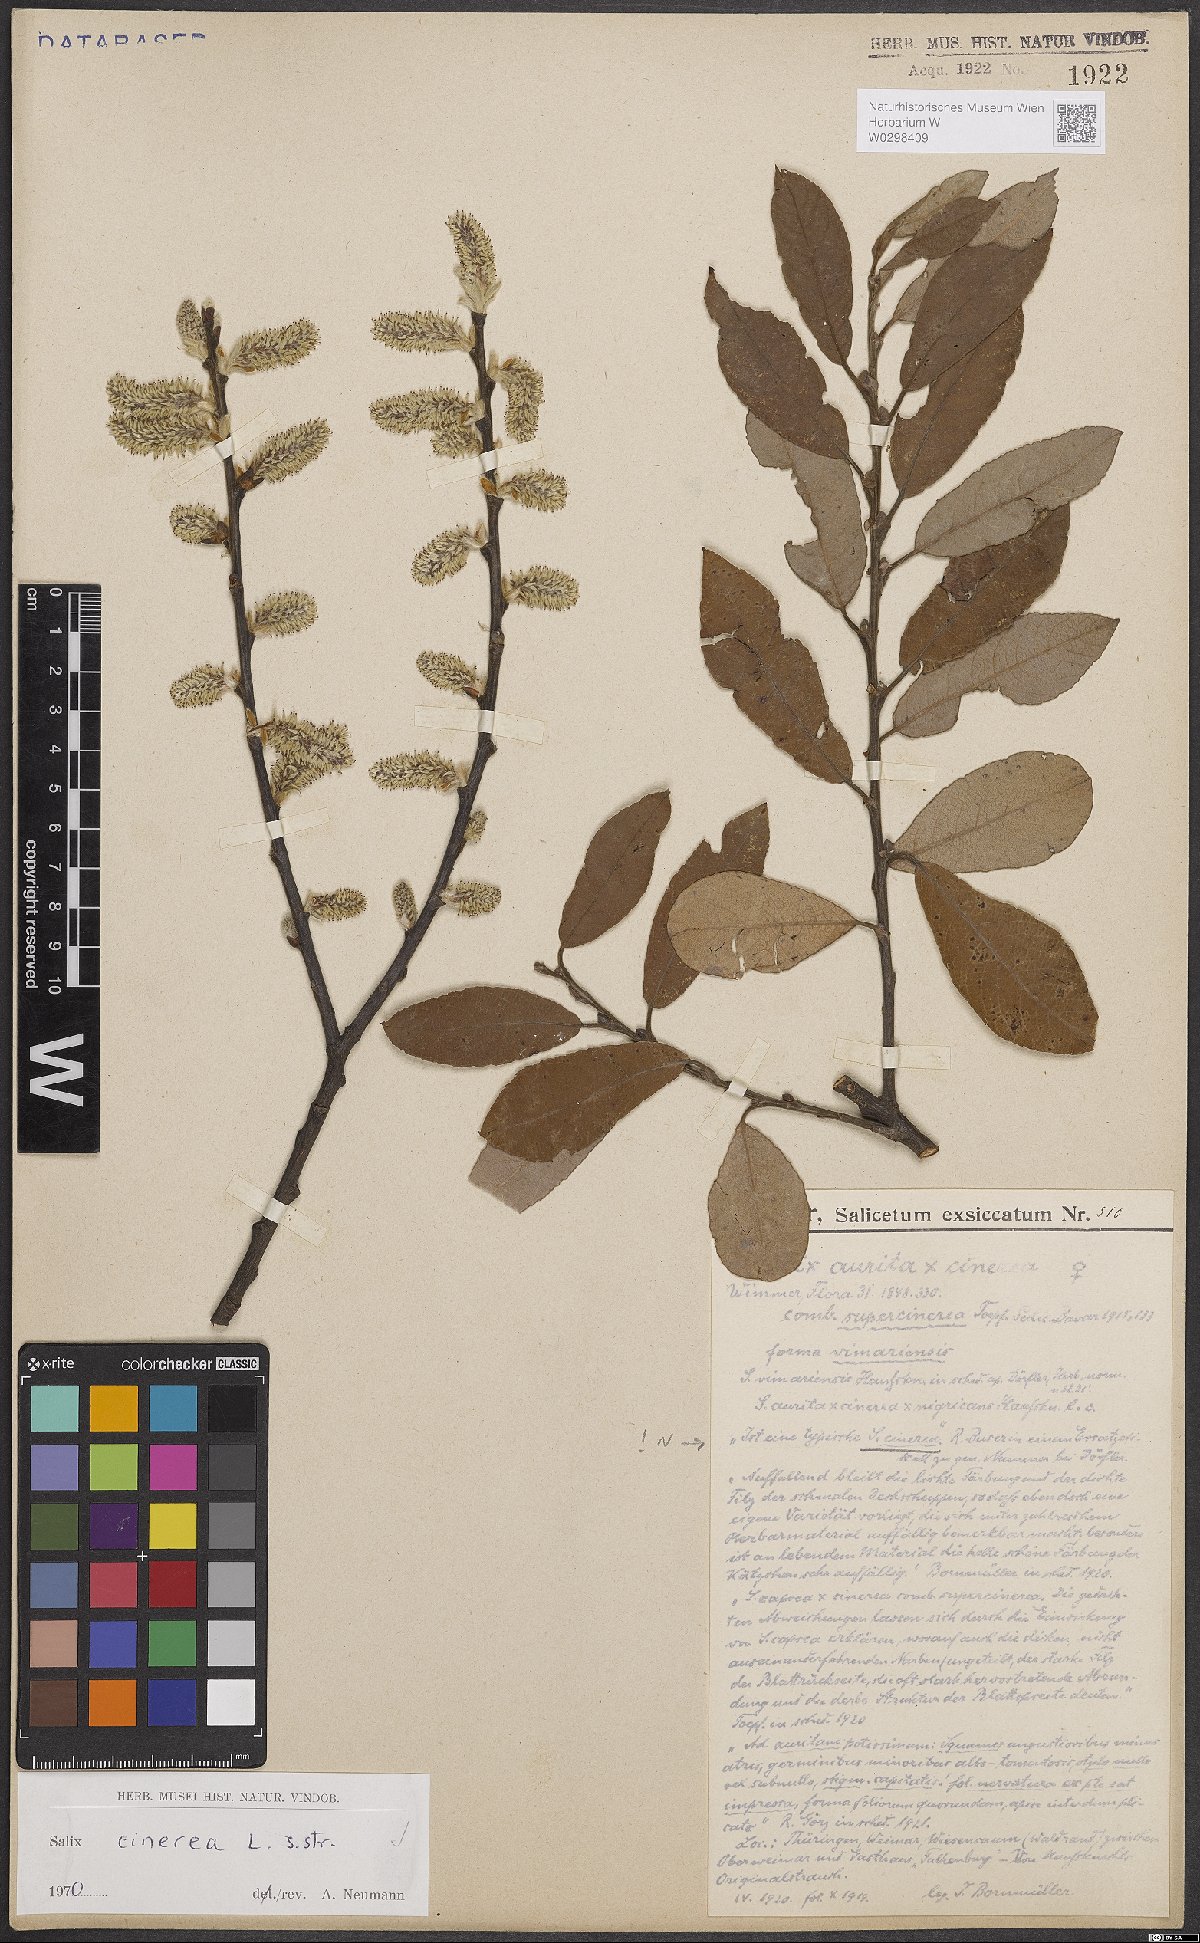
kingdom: Plantae
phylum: Tracheophyta
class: Magnoliopsida
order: Malpighiales
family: Salicaceae
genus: Salix
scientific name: Salix cinerea
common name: Common sallow
